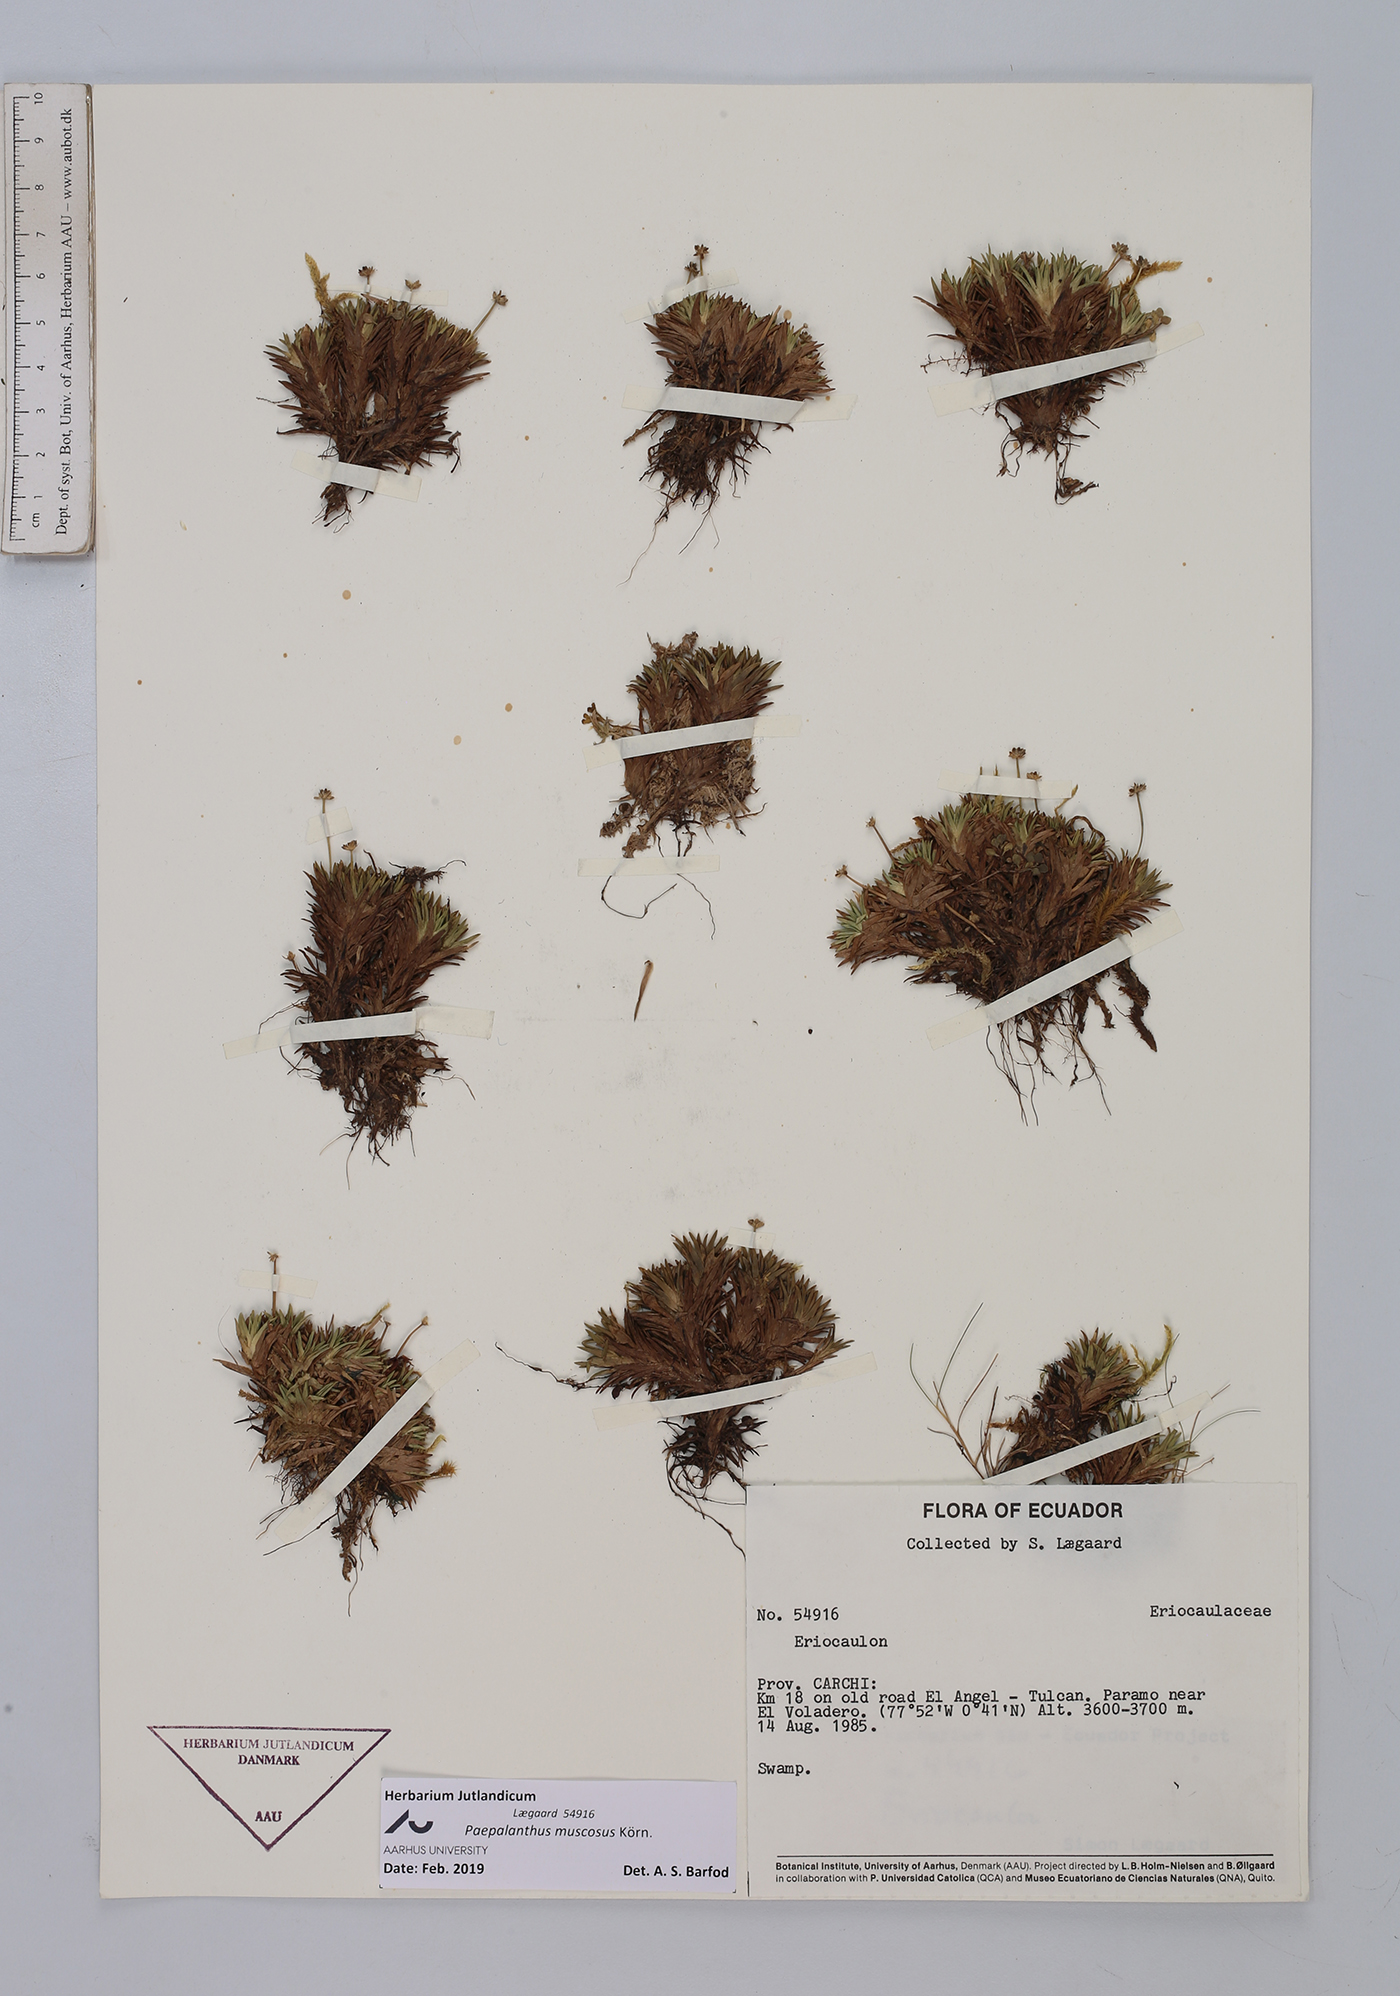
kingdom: Plantae
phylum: Tracheophyta
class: Liliopsida
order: Poales
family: Eriocaulaceae
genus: Paepalanthus
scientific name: Paepalanthus muscosus
